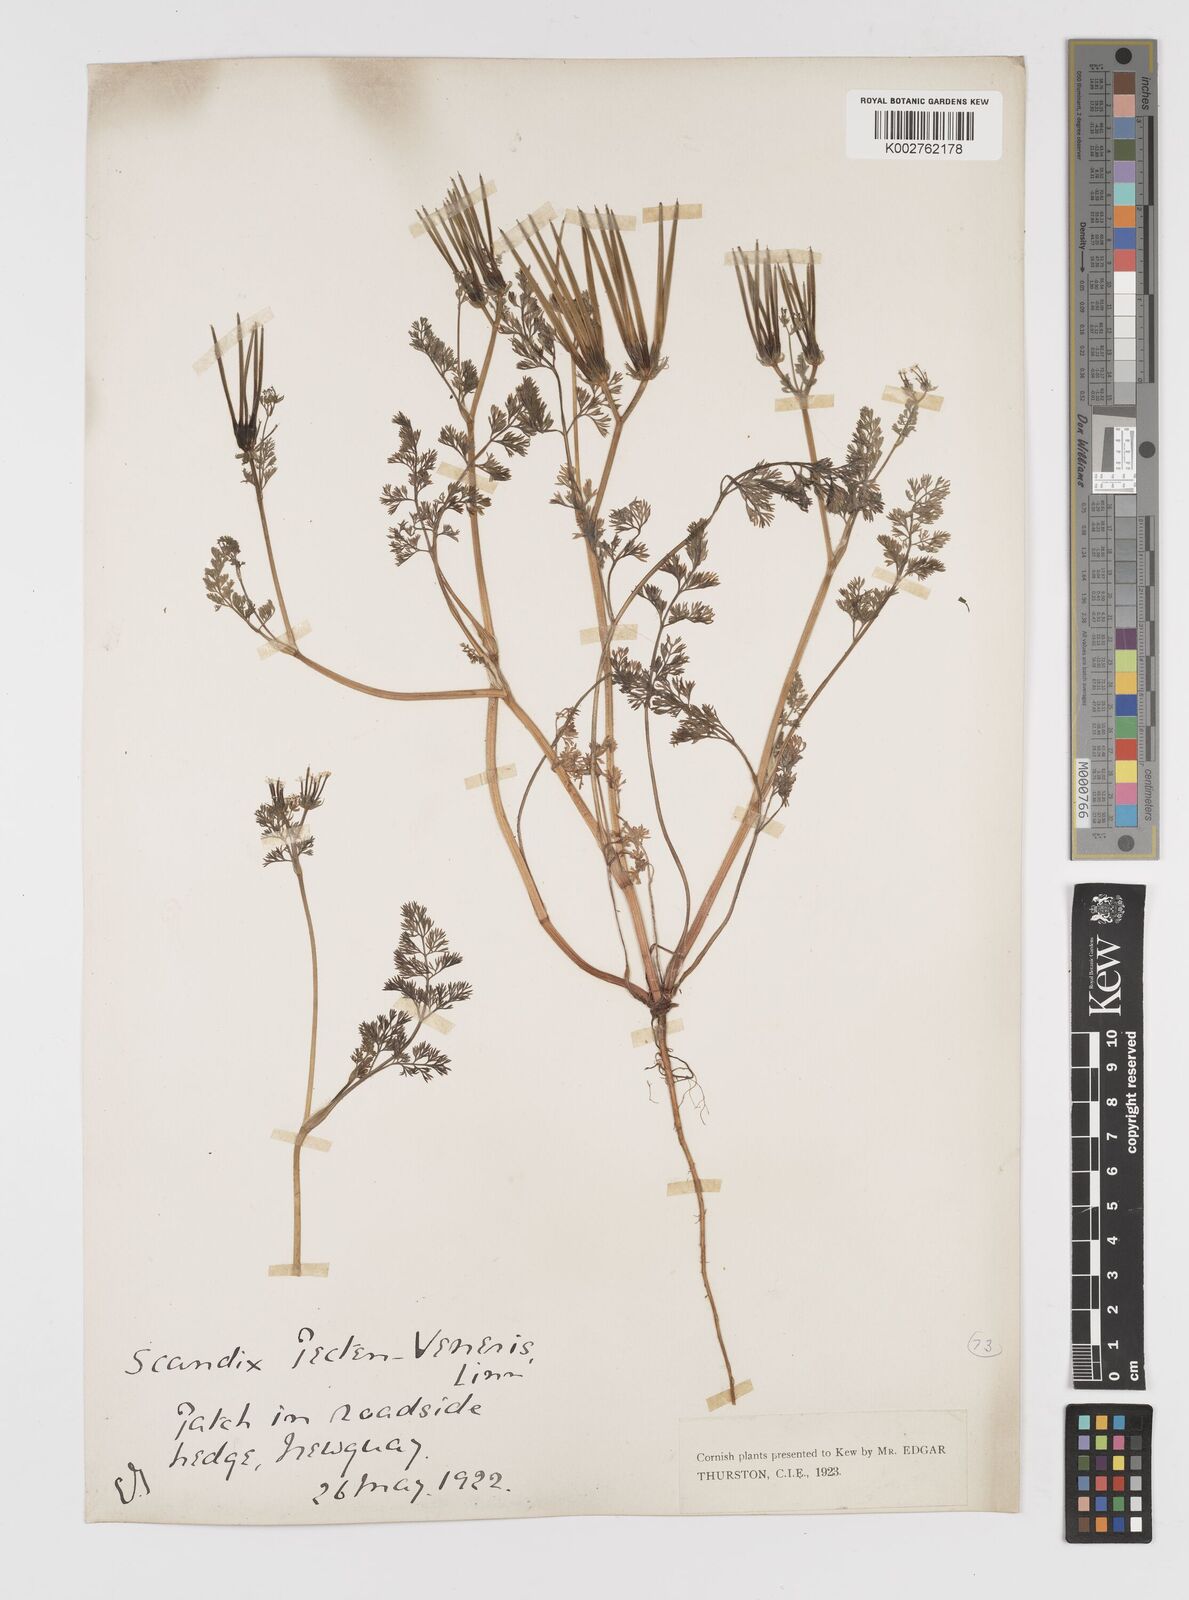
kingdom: Plantae
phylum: Tracheophyta
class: Magnoliopsida
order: Apiales
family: Apiaceae
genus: Scandix
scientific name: Scandix pecten-veneris
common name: Shepherd's-needle
